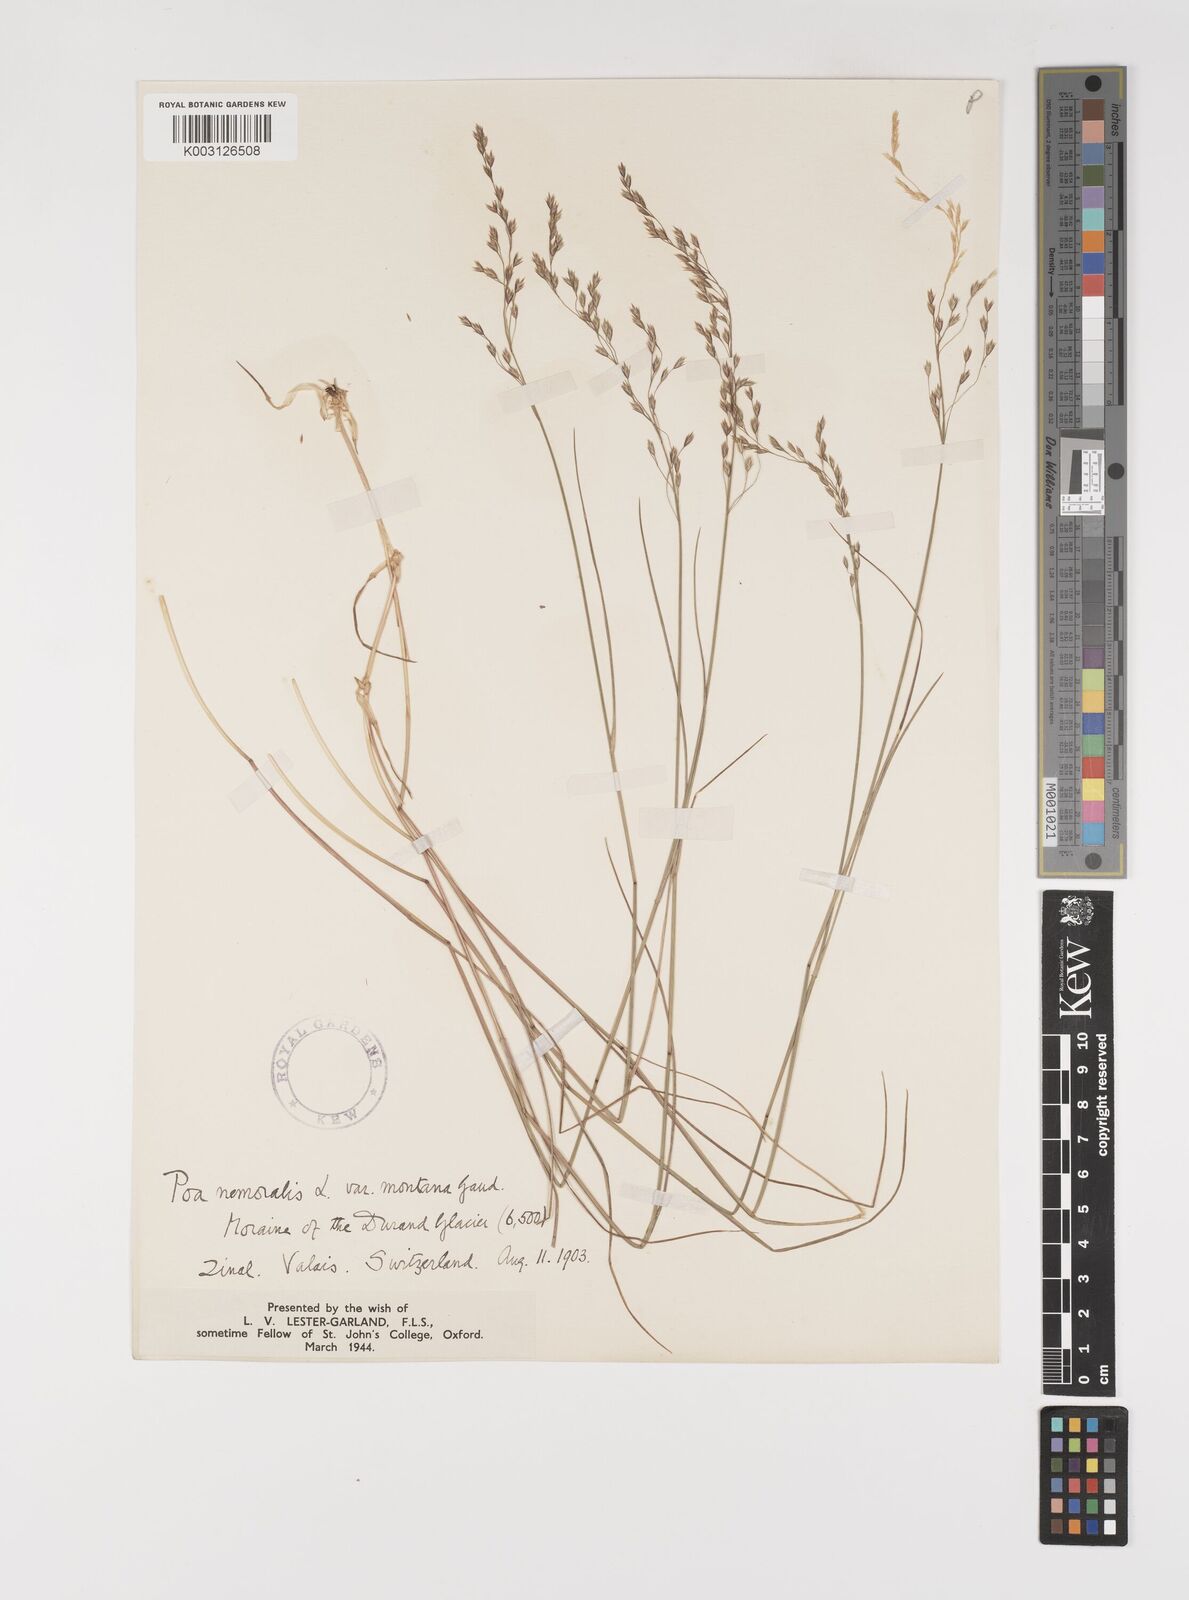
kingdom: Plantae
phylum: Tracheophyta
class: Liliopsida
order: Poales
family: Poaceae
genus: Poa
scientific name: Poa nemoralis
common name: Wood bluegrass
